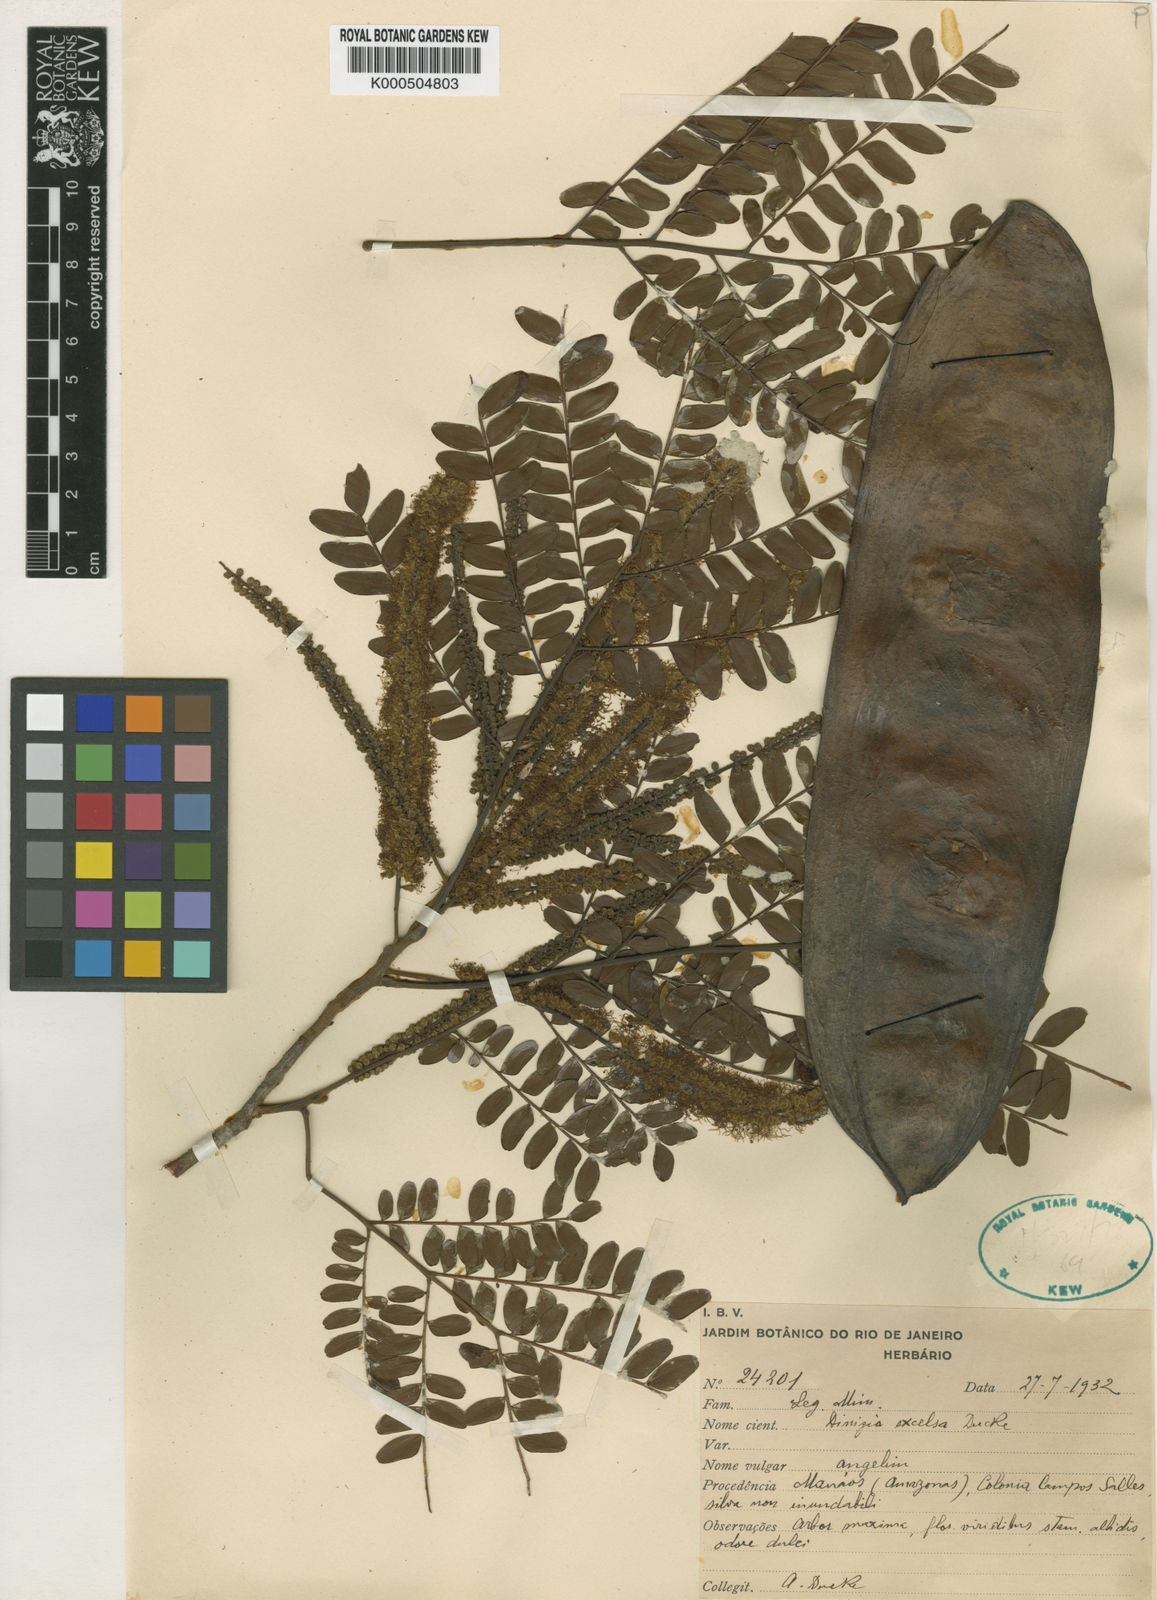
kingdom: Plantae
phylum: Tracheophyta
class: Magnoliopsida
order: Fabales
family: Fabaceae
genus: Dinizia
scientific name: Dinizia excelsa
